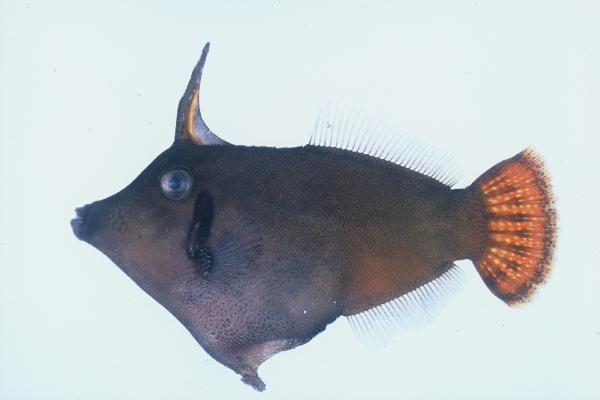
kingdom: Animalia
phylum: Chordata
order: Tetraodontiformes
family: Monacanthidae
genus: Pervagor
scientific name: Pervagor janthinosoma
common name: Blackbar filefish
